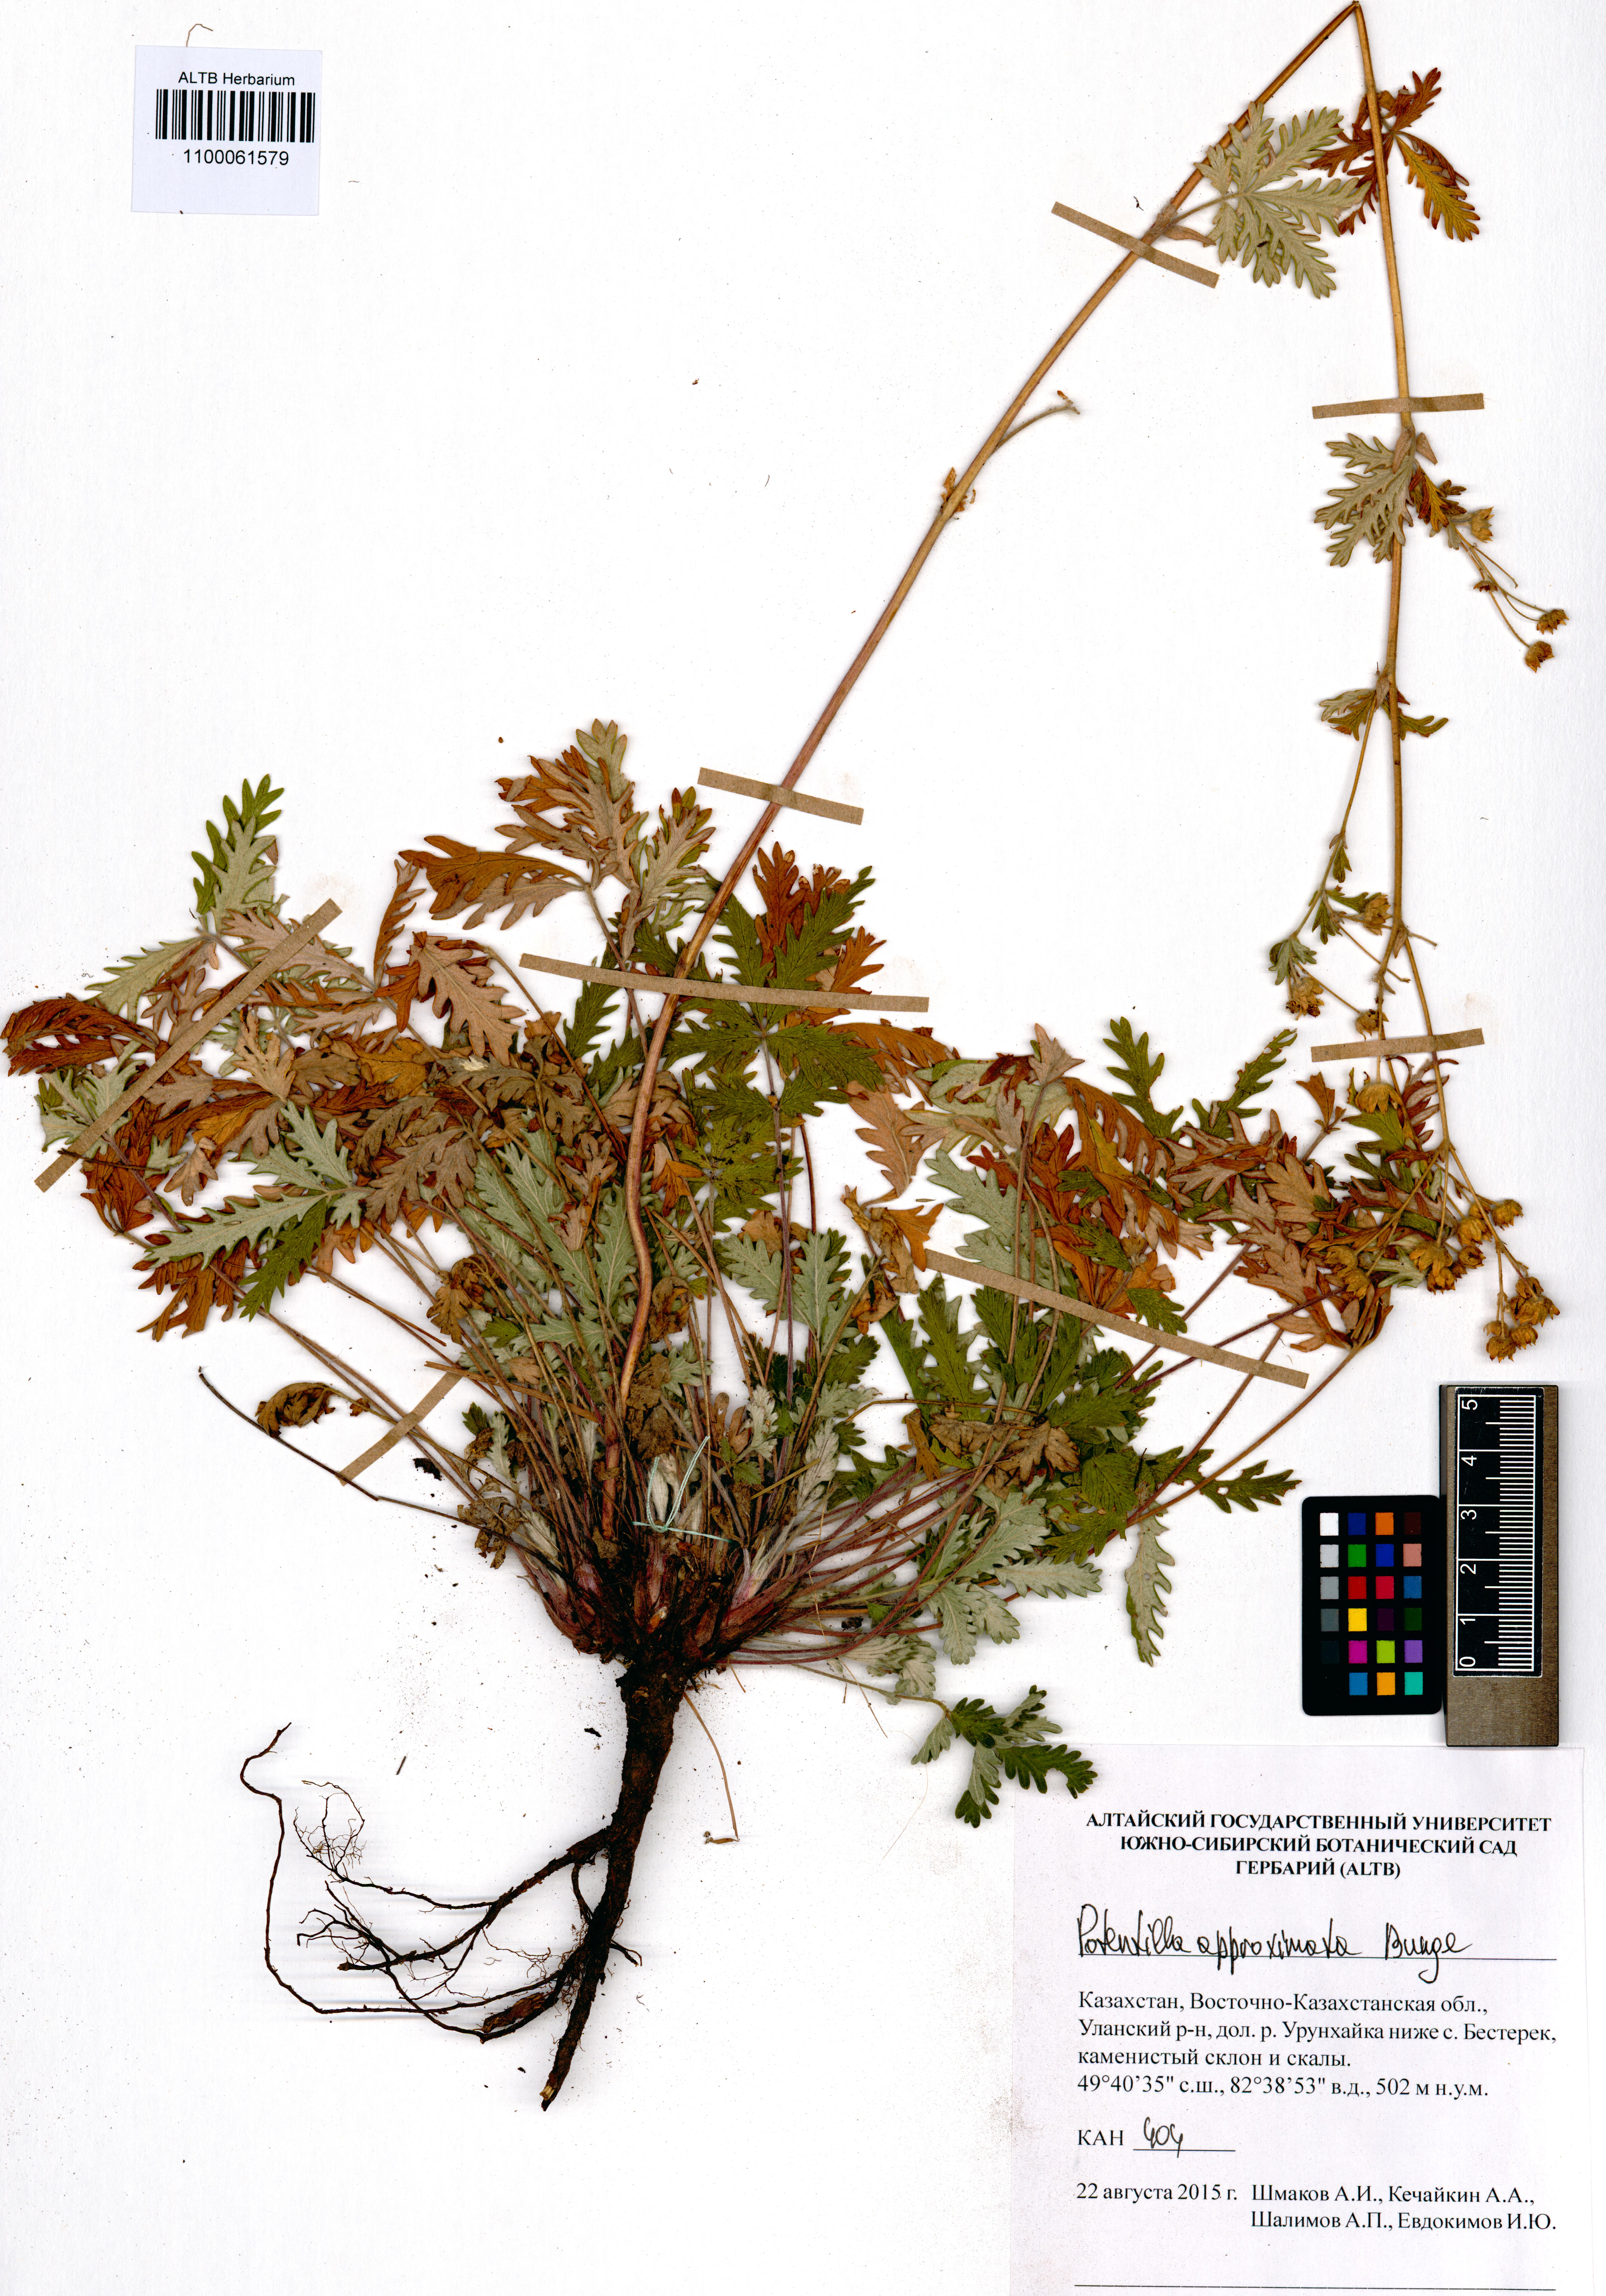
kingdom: Plantae
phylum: Tracheophyta
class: Magnoliopsida
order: Rosales
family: Rosaceae
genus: Potentilla
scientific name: Potentilla conferta
